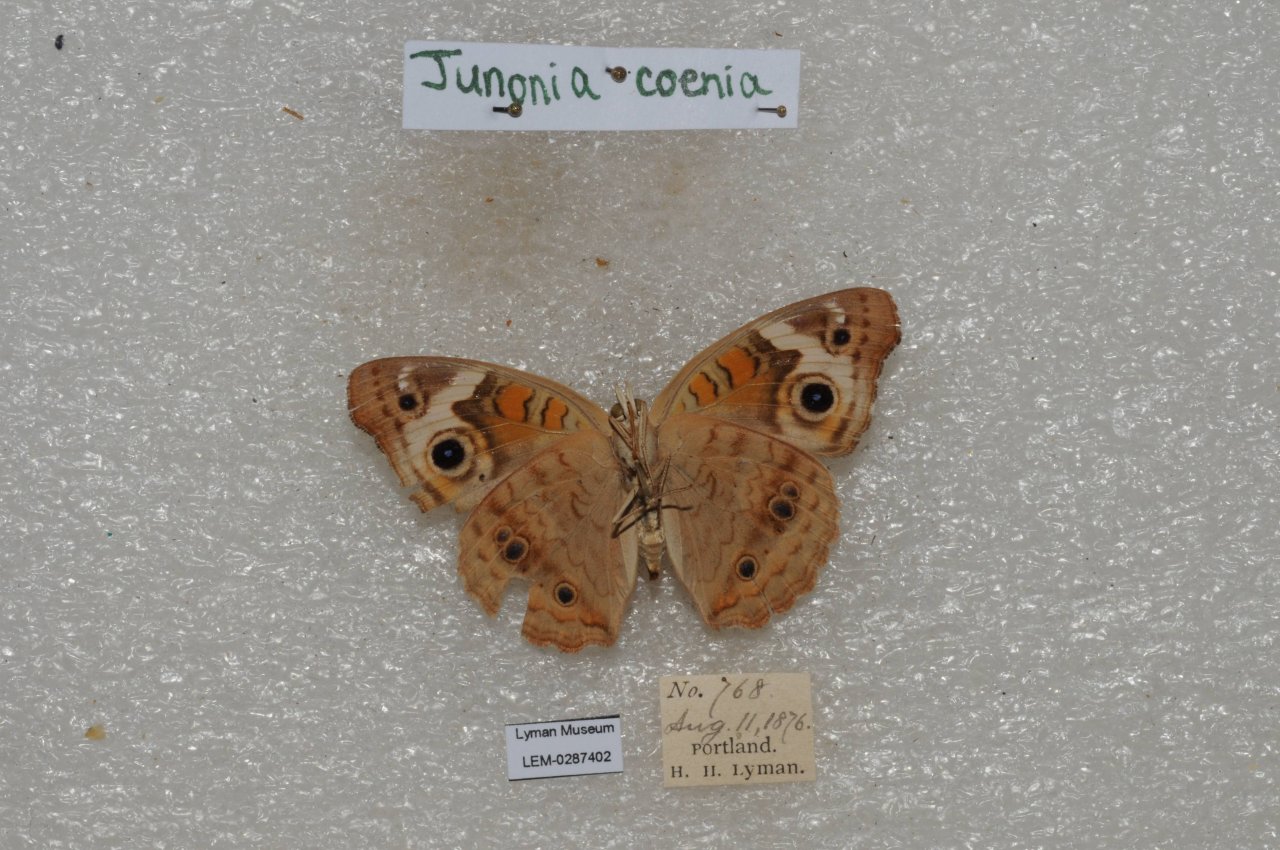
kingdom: Animalia
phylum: Arthropoda
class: Insecta
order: Lepidoptera
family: Nymphalidae
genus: Junonia
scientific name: Junonia coenia
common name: Common Buckeye
